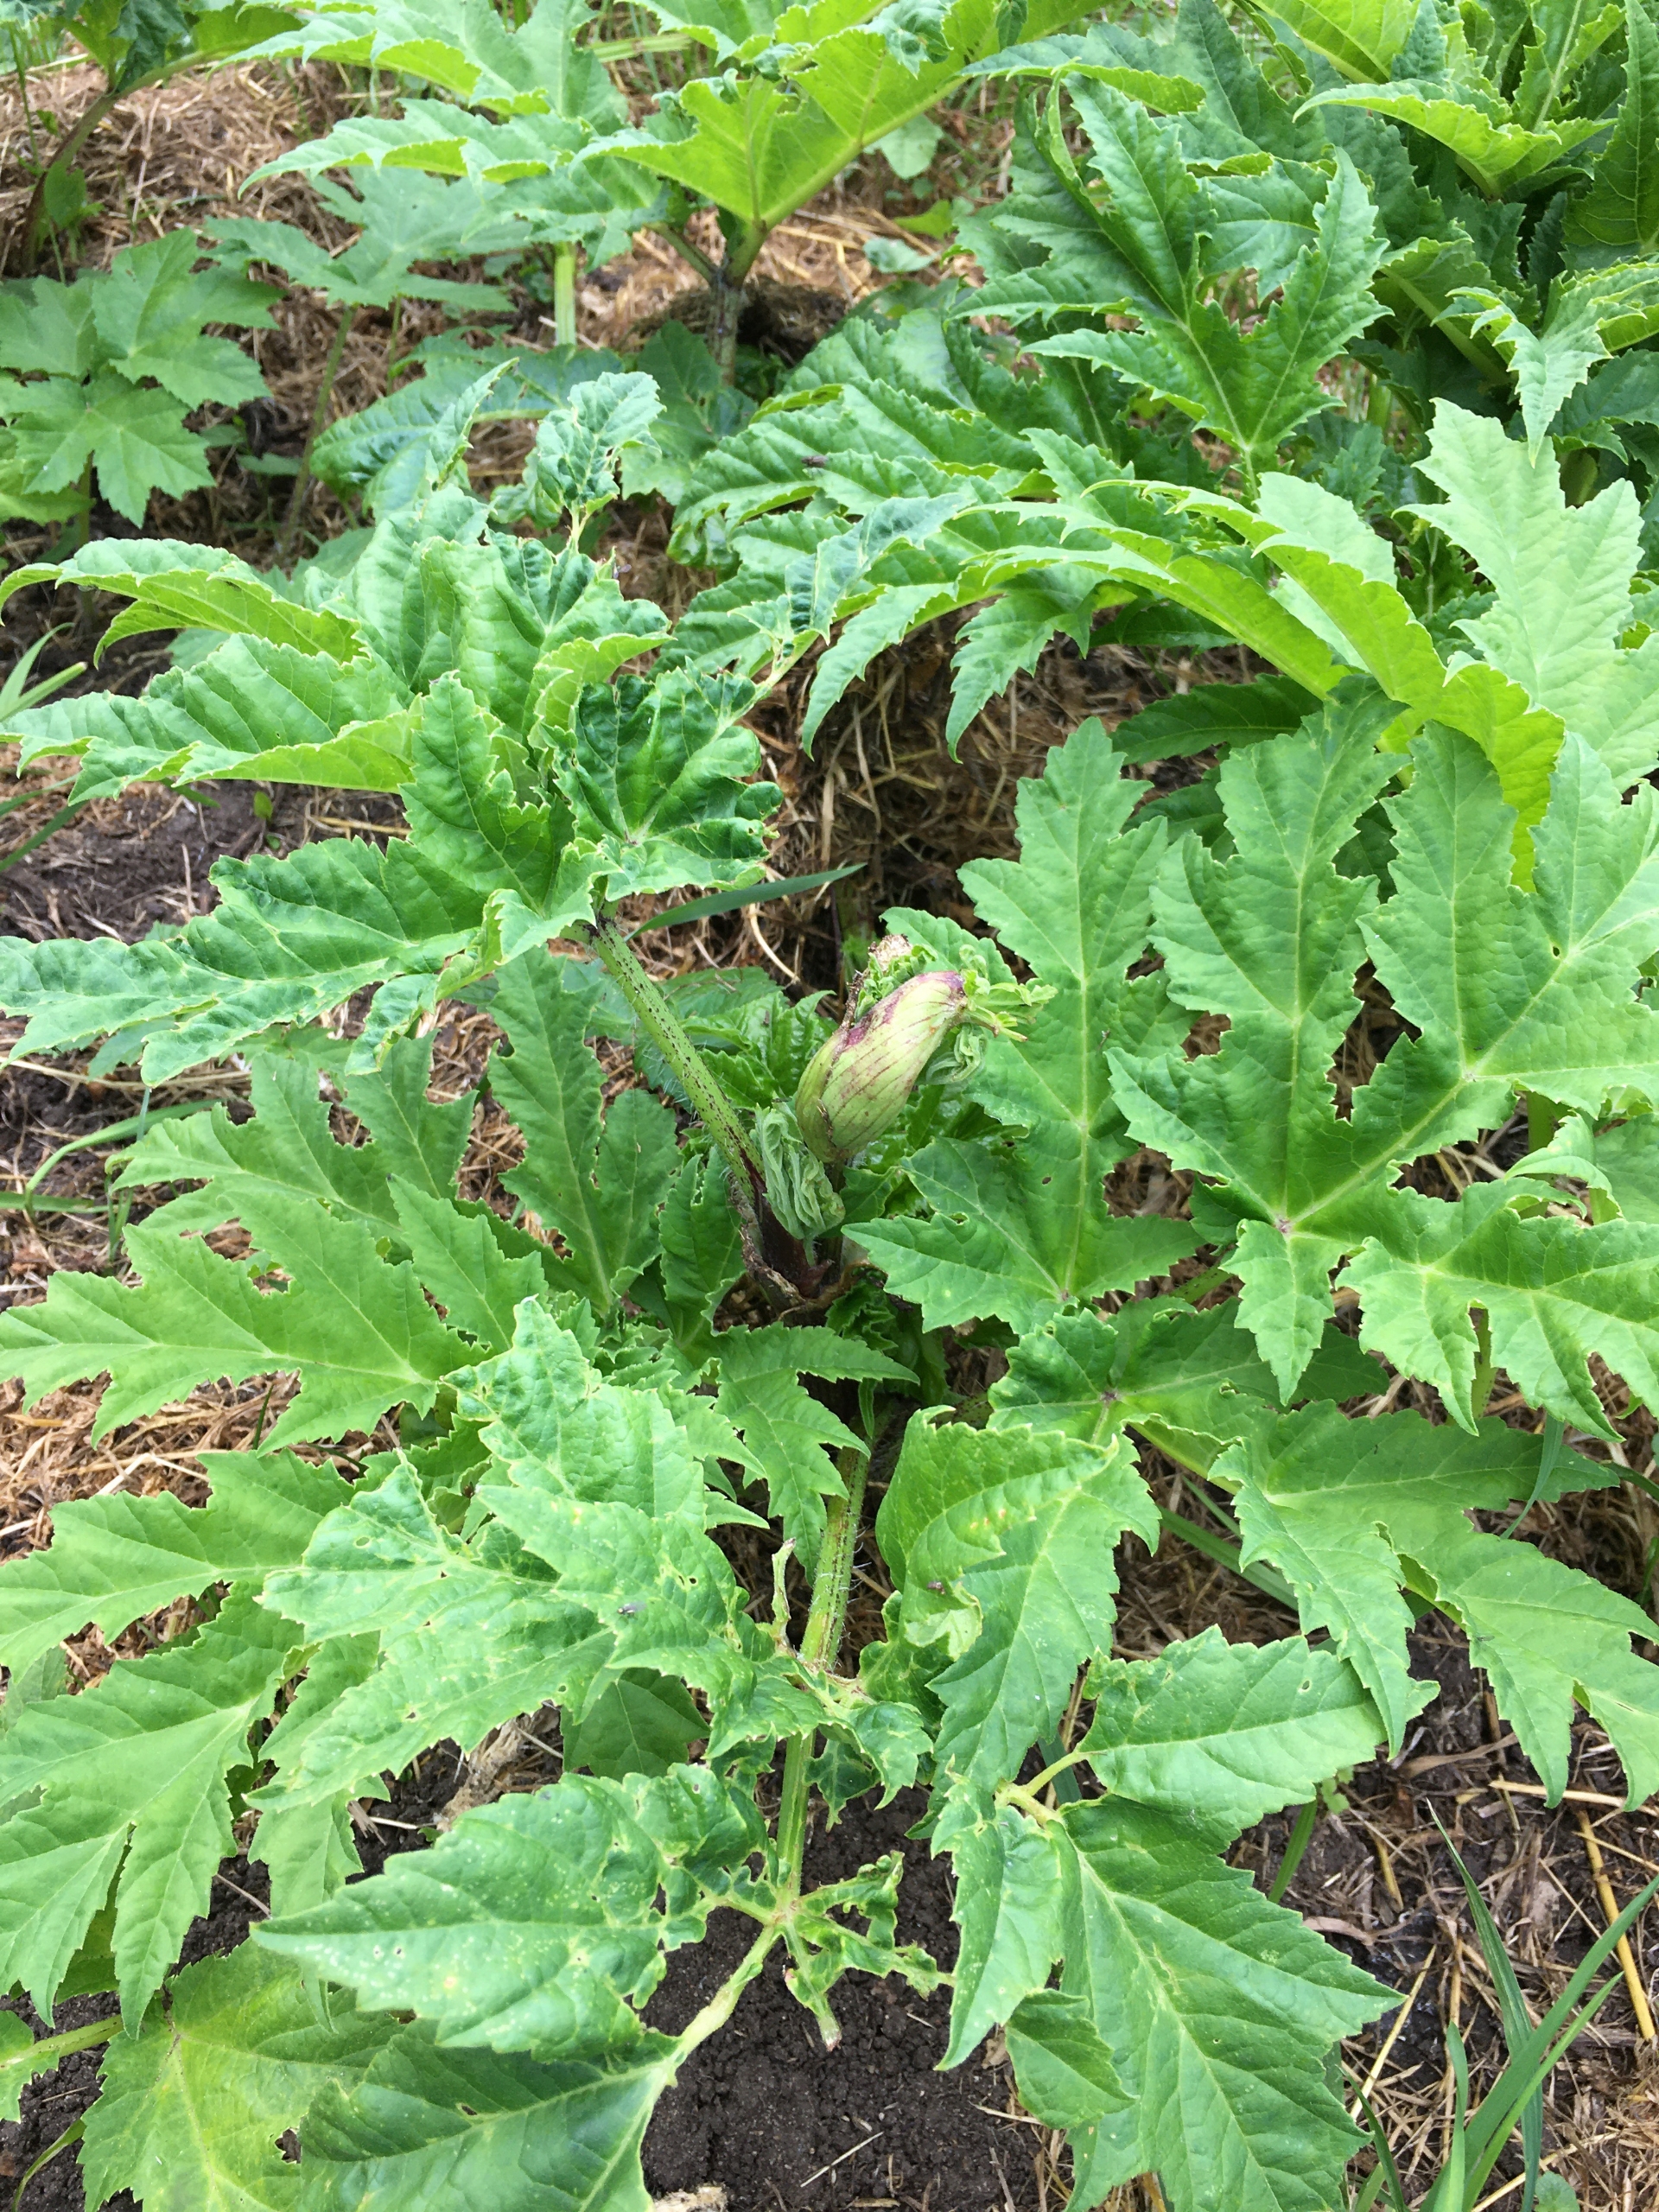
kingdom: Plantae
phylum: Tracheophyta
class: Magnoliopsida
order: Apiales
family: Apiaceae
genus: Heracleum
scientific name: Heracleum mantegazzianum
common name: Kæmpe-bjørneklo
